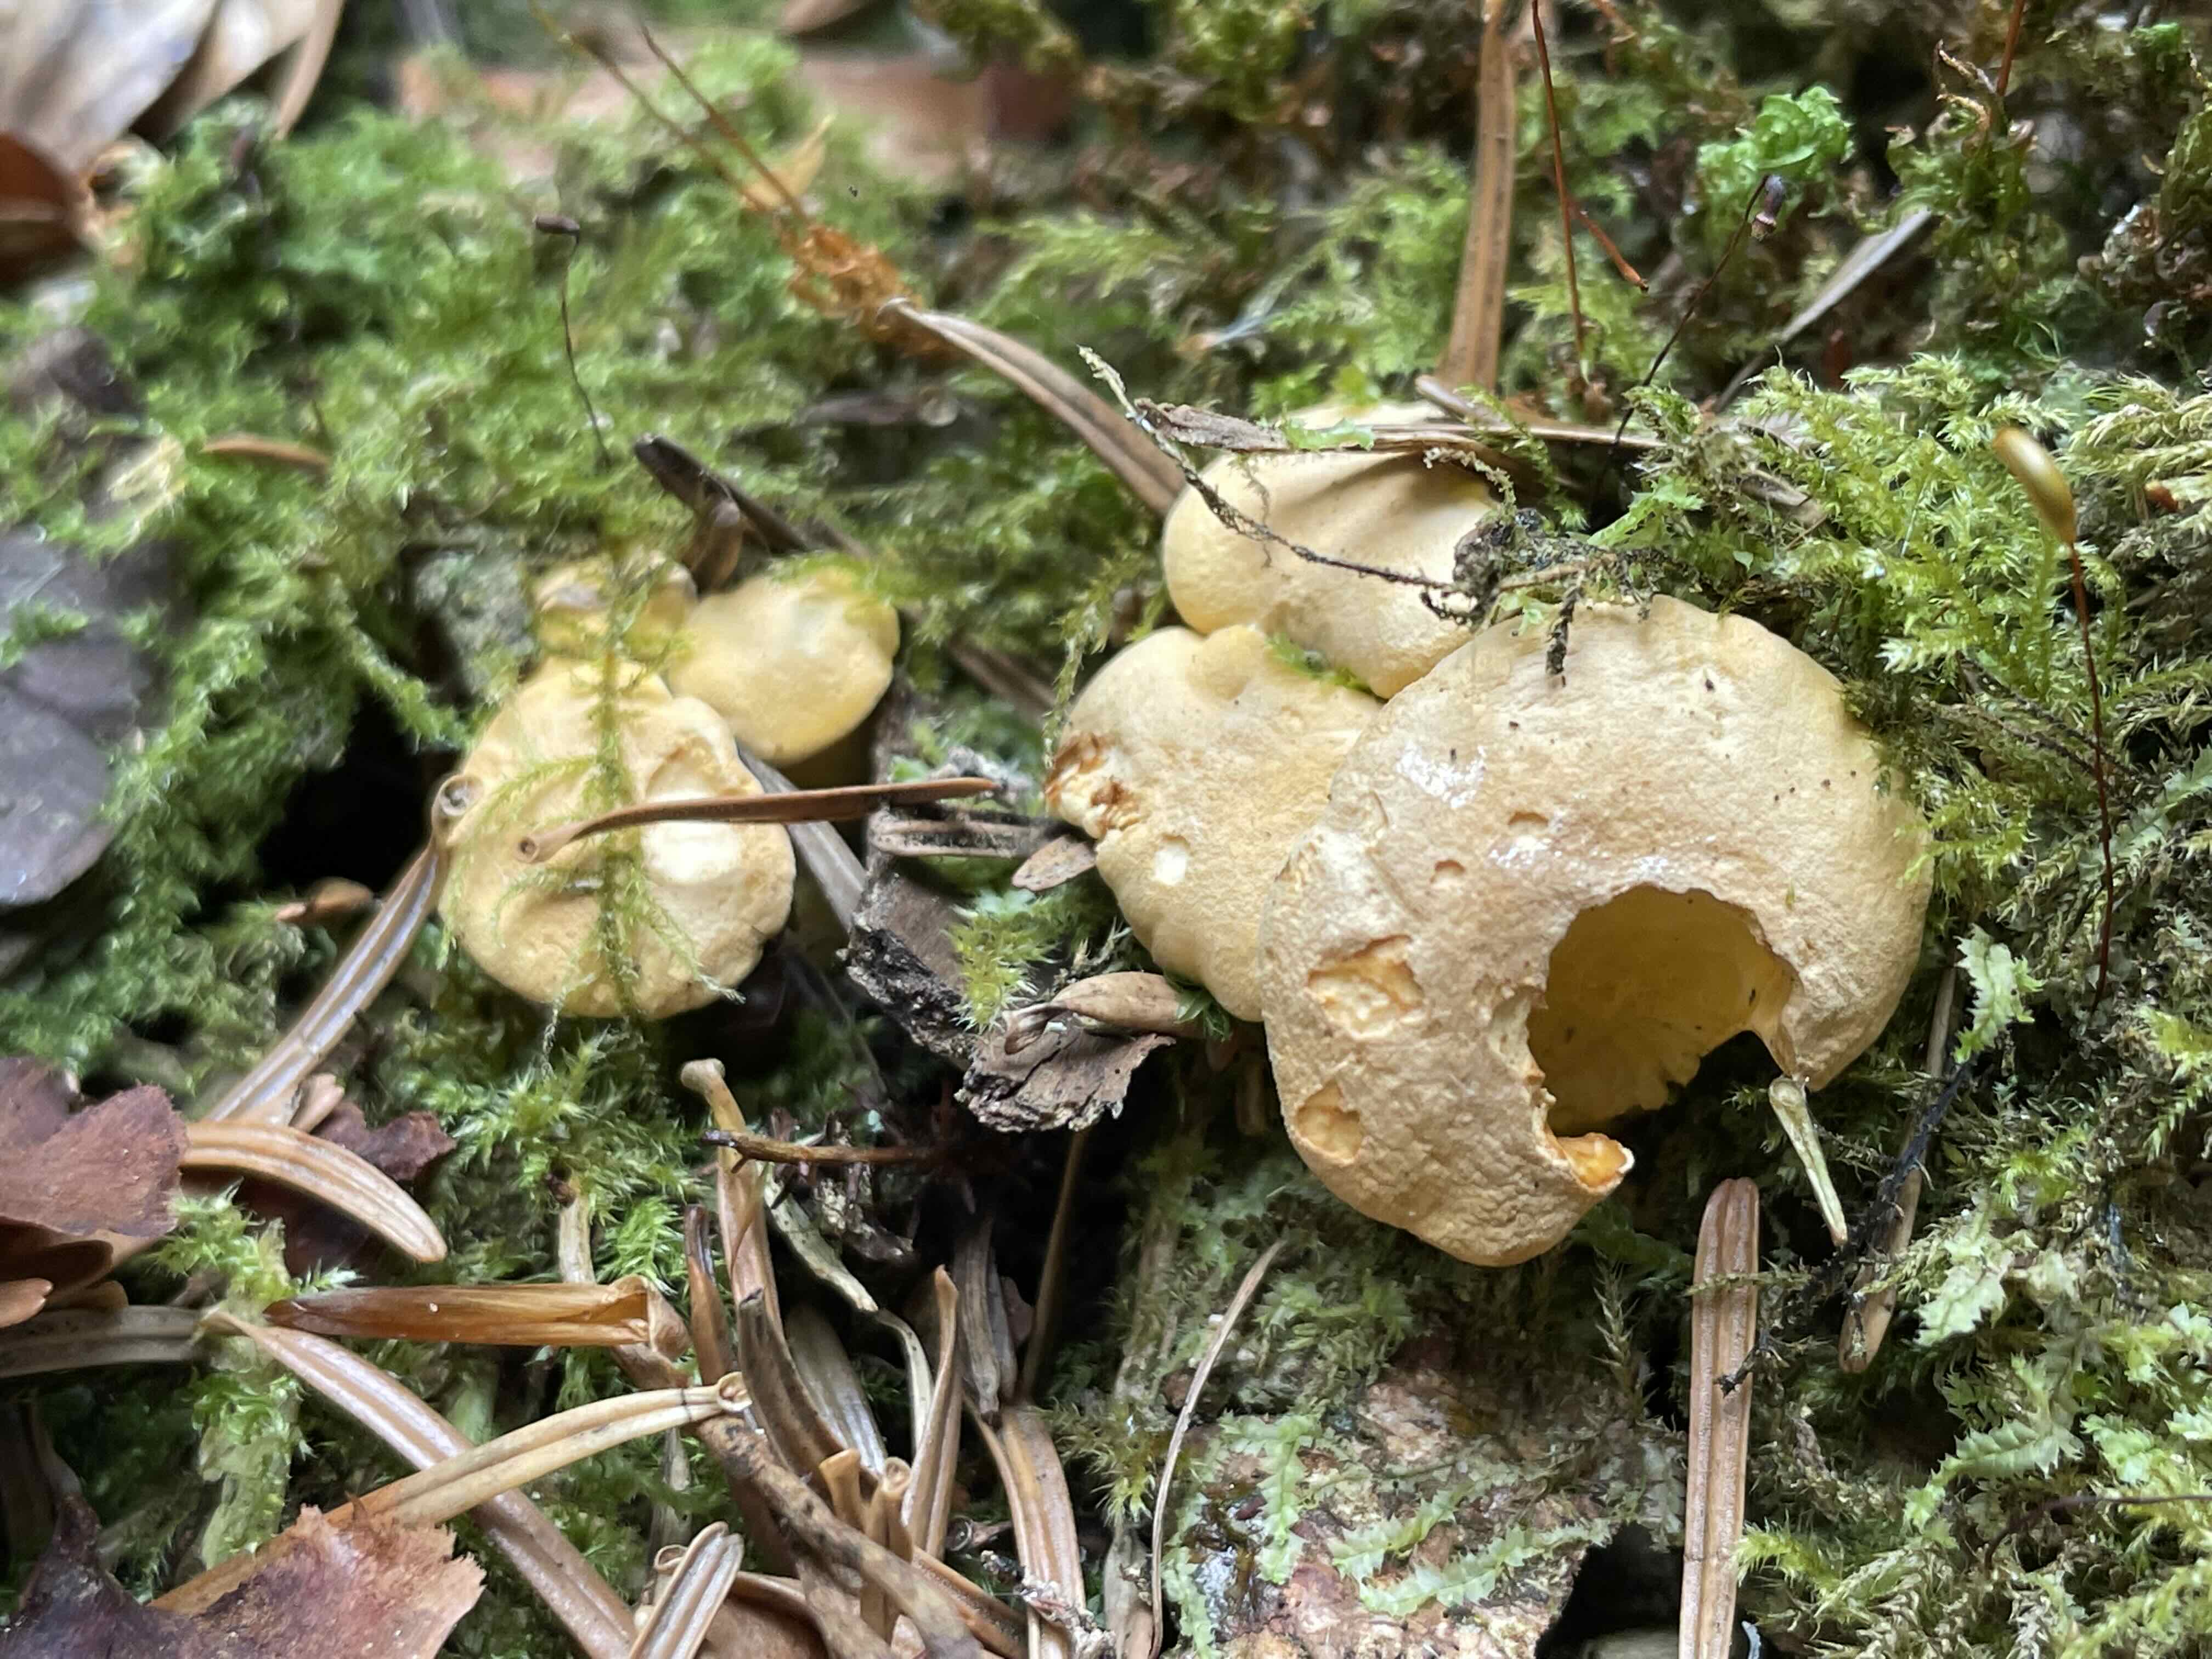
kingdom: Fungi
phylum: Basidiomycota
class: Agaricomycetes
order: Cantharellales
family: Hydnaceae
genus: Cantharellus
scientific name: Cantharellus cibarius
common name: almindelig kantarel
